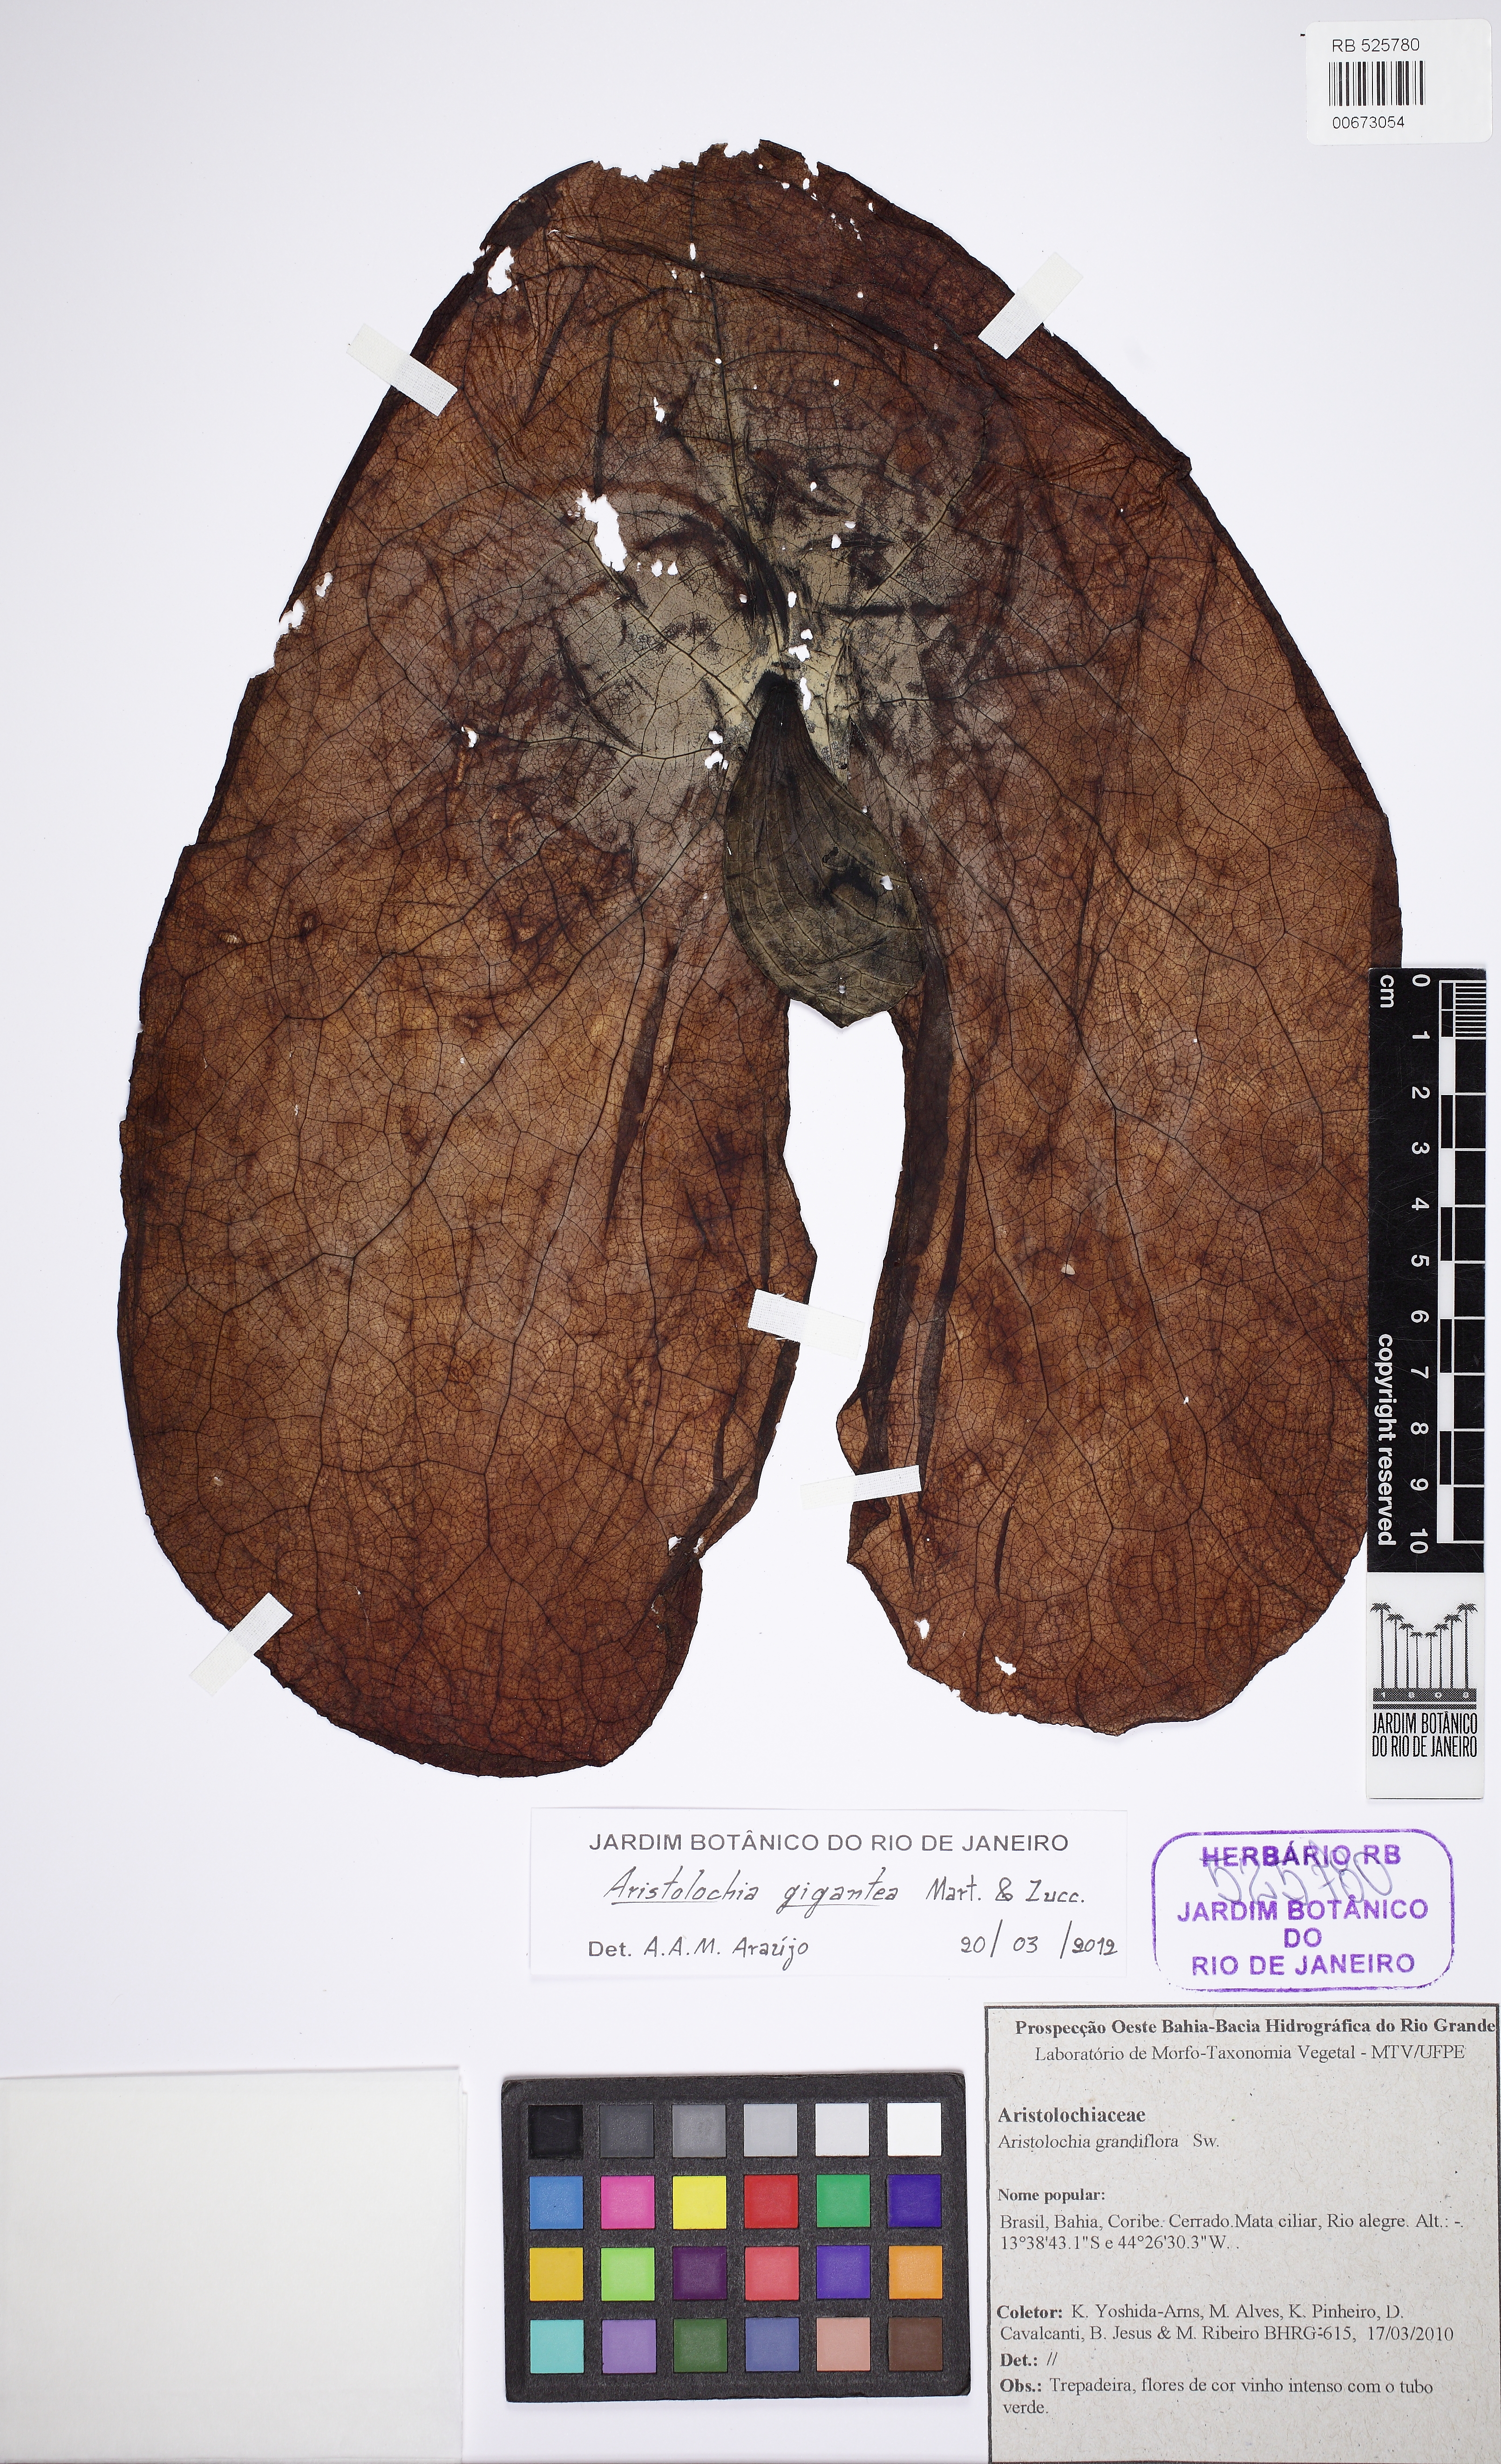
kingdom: Plantae
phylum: Tracheophyta
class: Magnoliopsida
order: Piperales
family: Aristolochiaceae
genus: Aristolochia
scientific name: Aristolochia gigantea
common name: Duckflower
